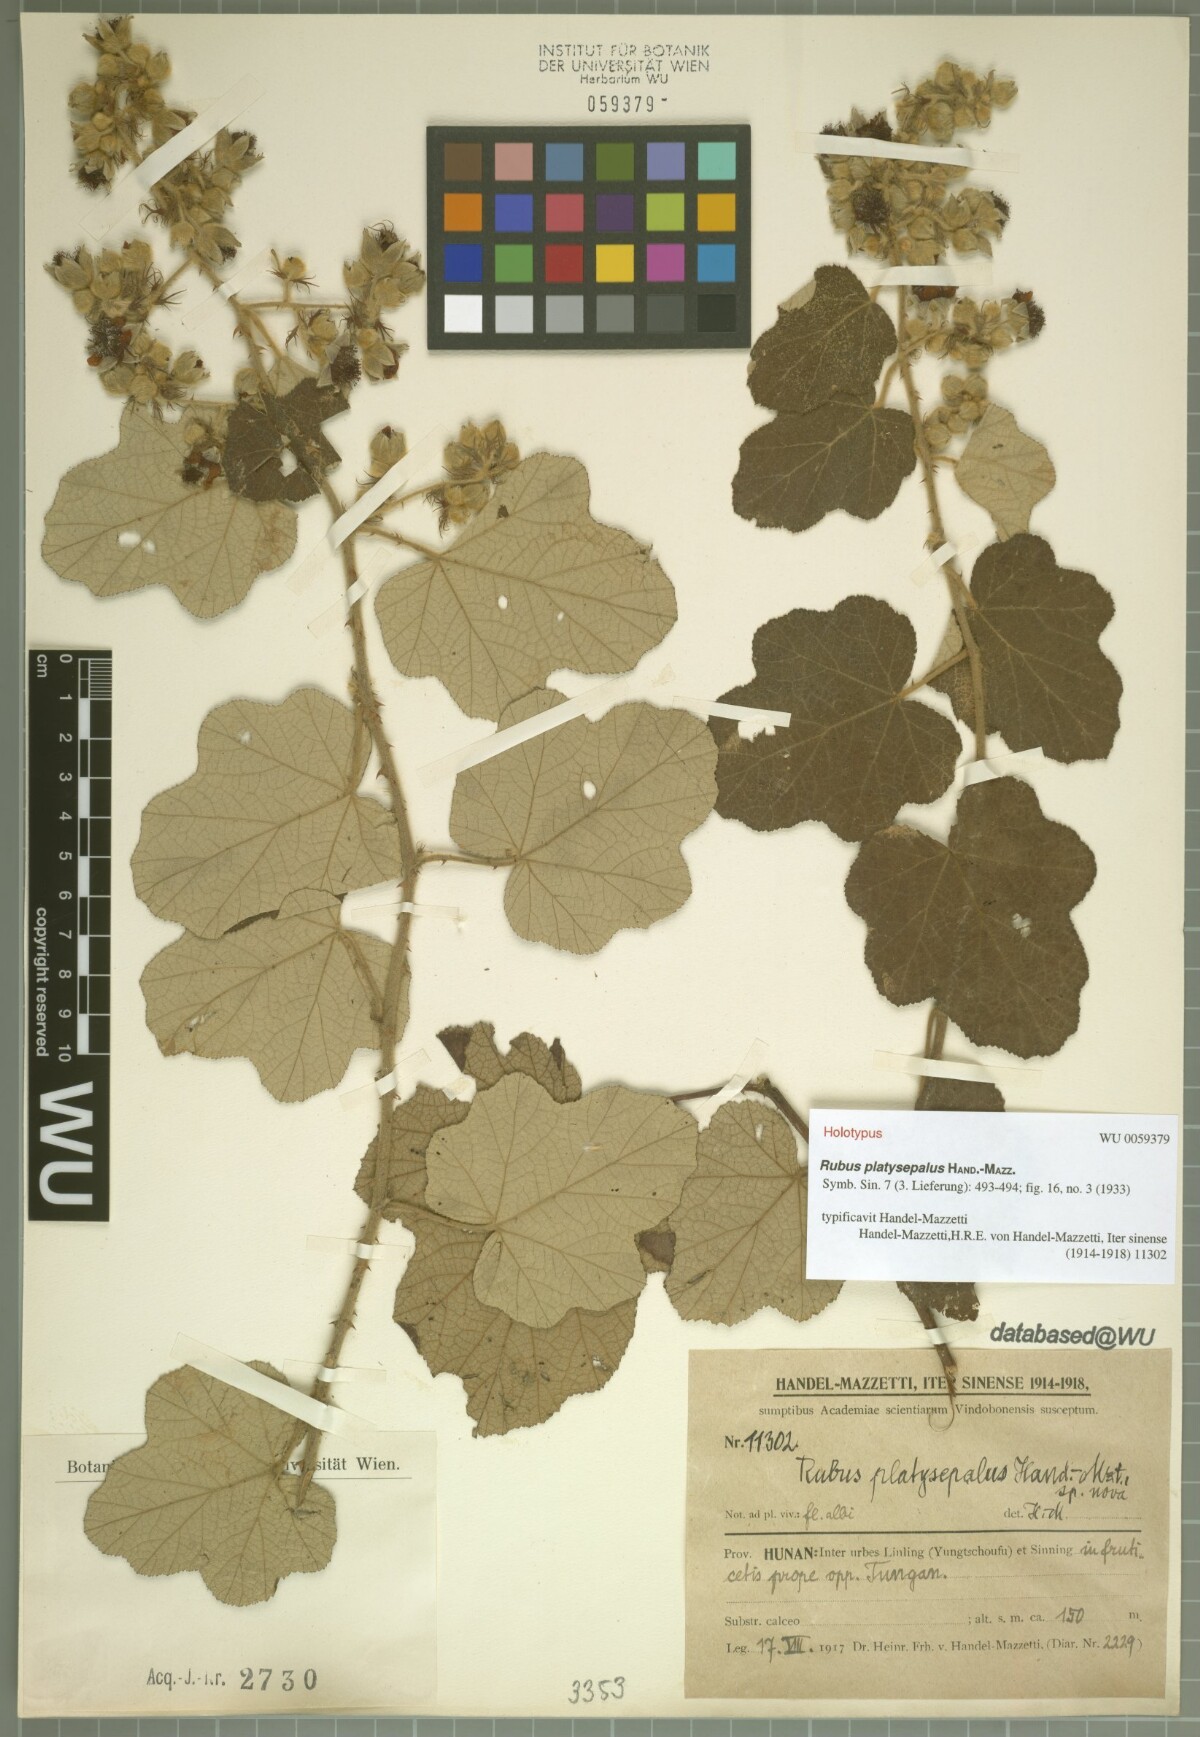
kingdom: Plantae
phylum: Tracheophyta
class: Magnoliopsida
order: Rosales
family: Rosaceae
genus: Rubus
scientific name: Rubus platysepalus
